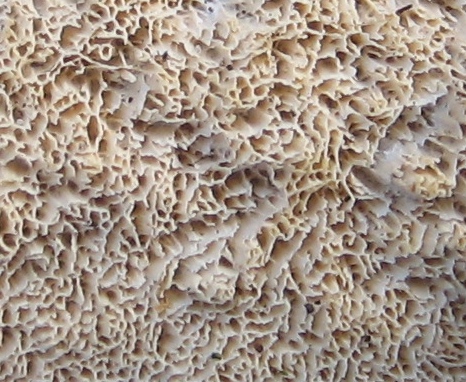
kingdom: Fungi
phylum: Basidiomycota
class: Agaricomycetes
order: Hymenochaetales
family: Schizoporaceae
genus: Xylodon
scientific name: Xylodon subtropicus
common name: labyrint-tandsvamp
